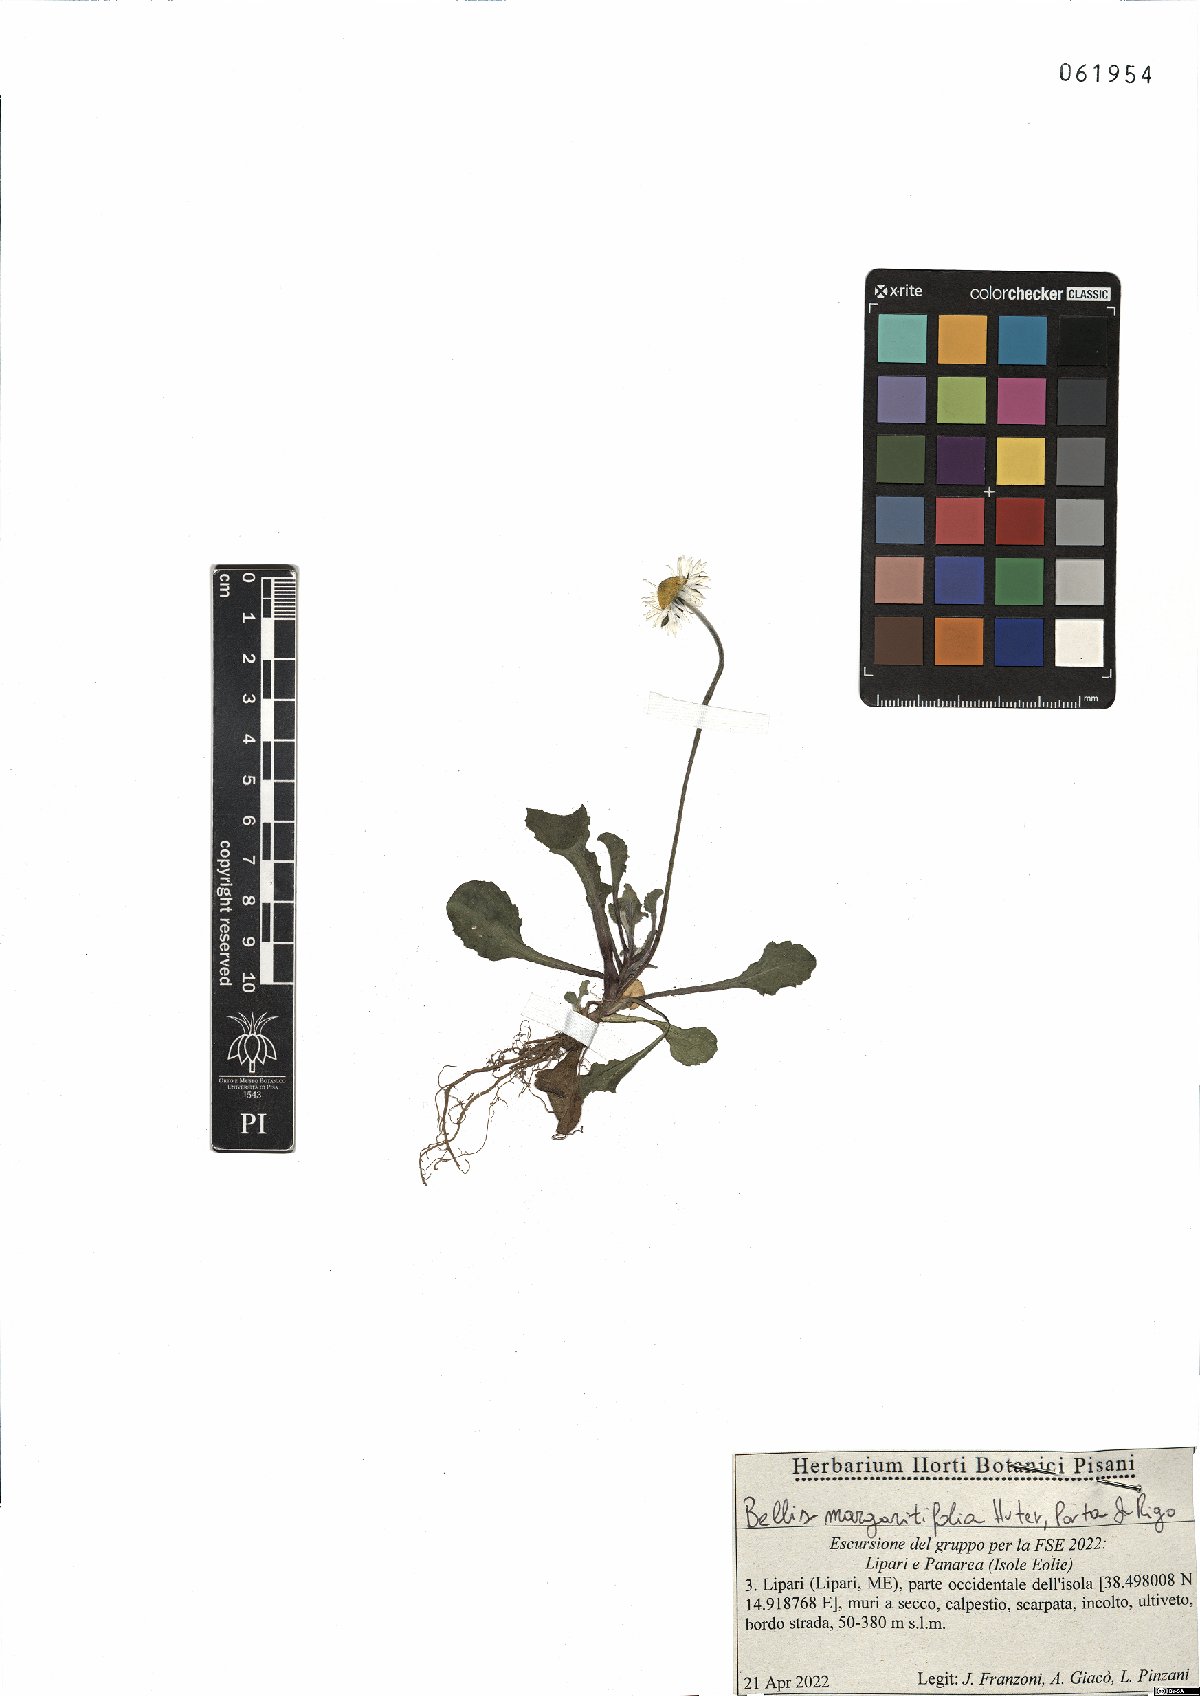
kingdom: Plantae
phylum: Tracheophyta
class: Magnoliopsida
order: Asterales
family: Asteraceae
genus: Bellis
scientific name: Bellis margaritifolia
